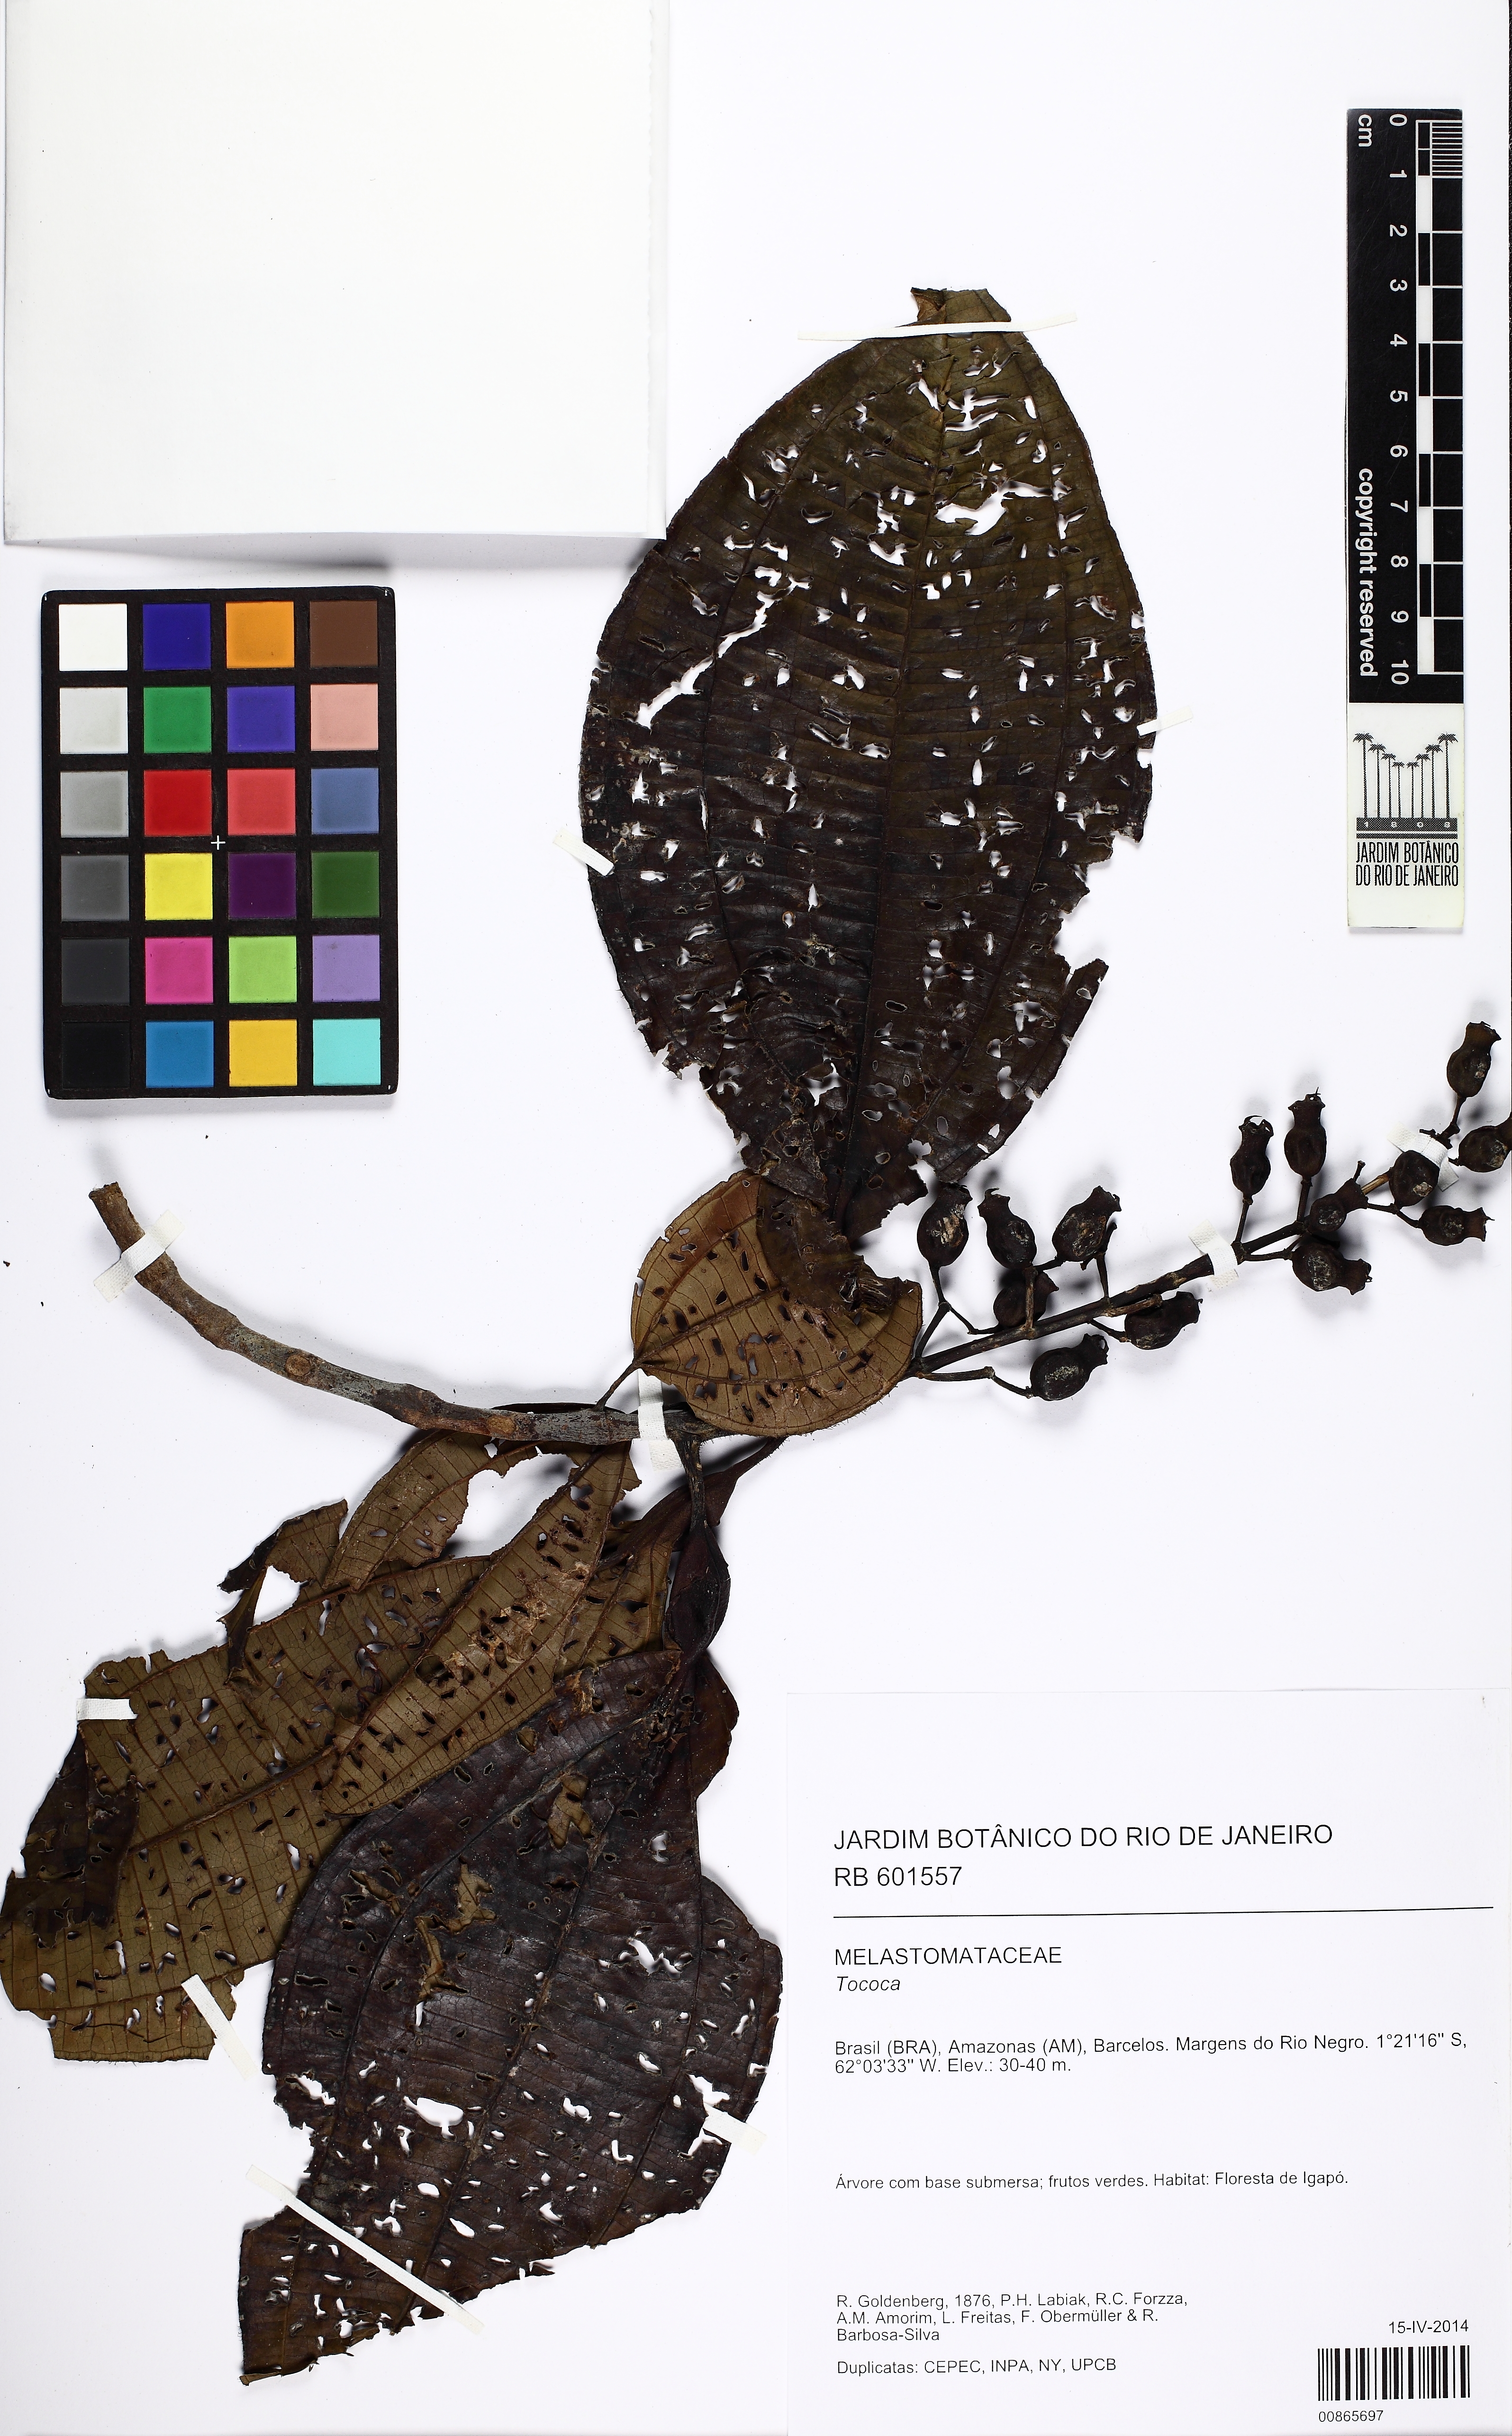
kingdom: Plantae
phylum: Tracheophyta
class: Magnoliopsida
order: Myrtales
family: Melastomataceae
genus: Miconia
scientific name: Miconia tococoronata
